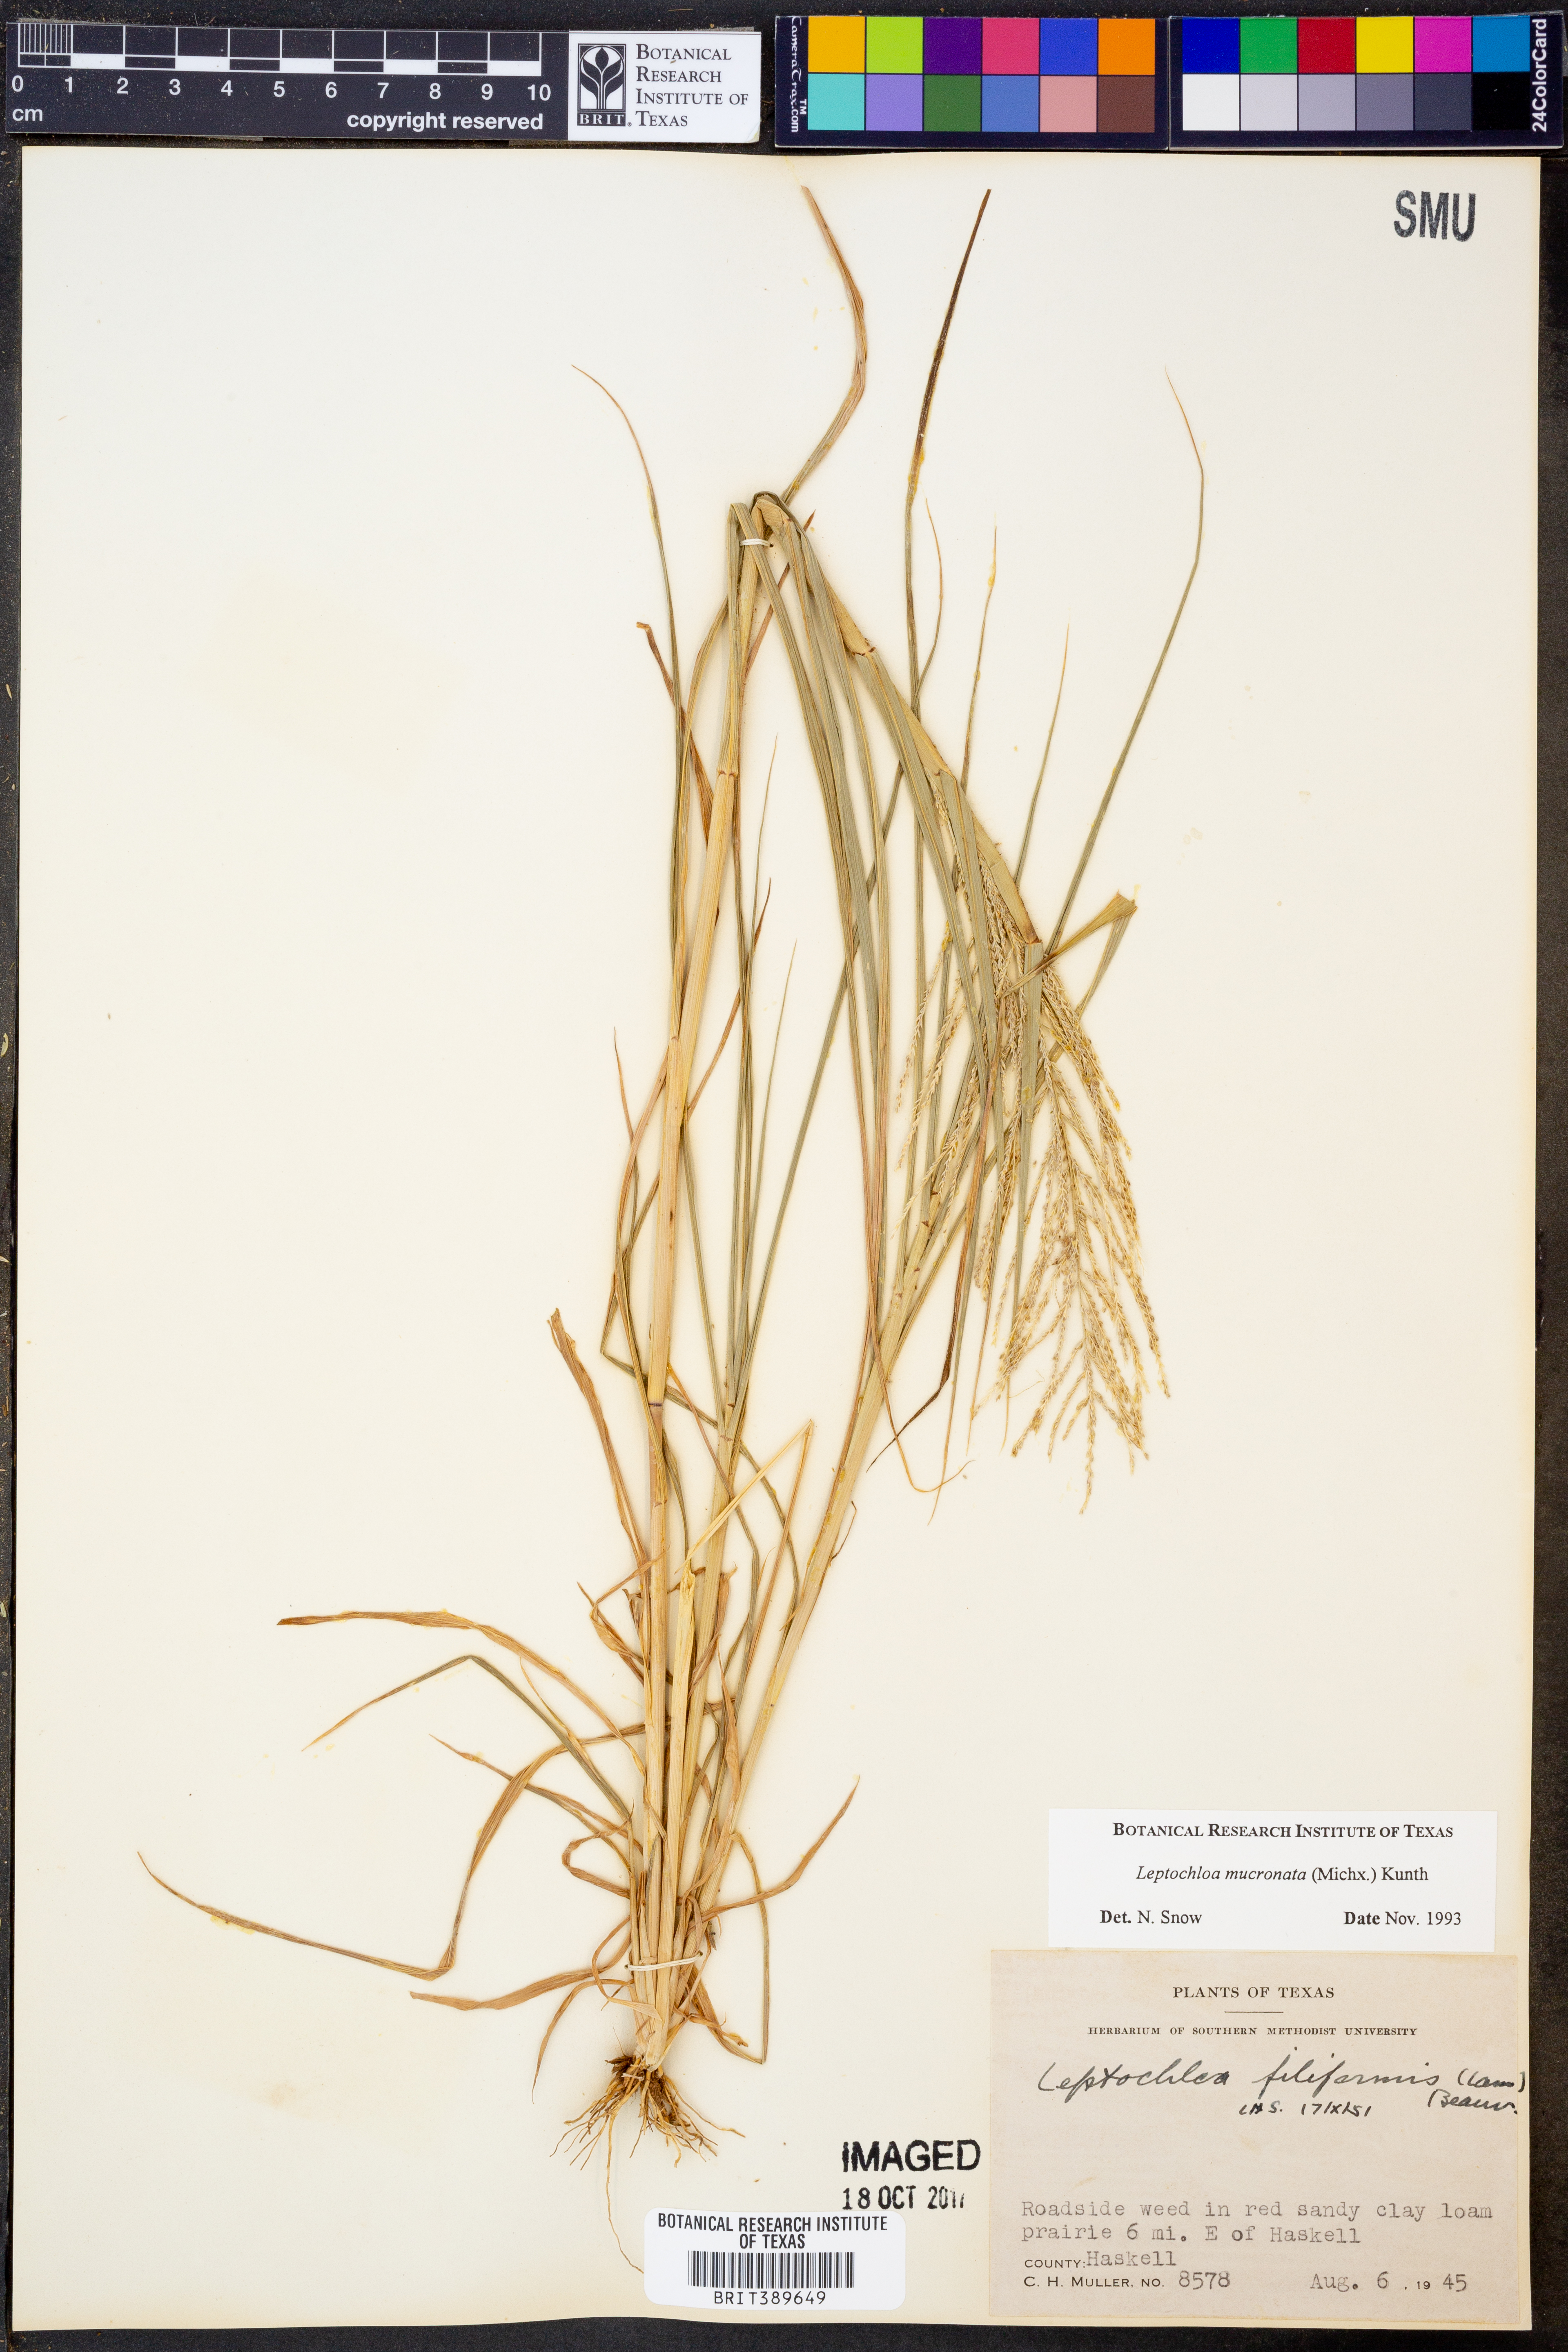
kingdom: Plantae
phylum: Tracheophyta
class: Liliopsida
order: Poales
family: Poaceae
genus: Leptochloa
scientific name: Leptochloa mucronata
